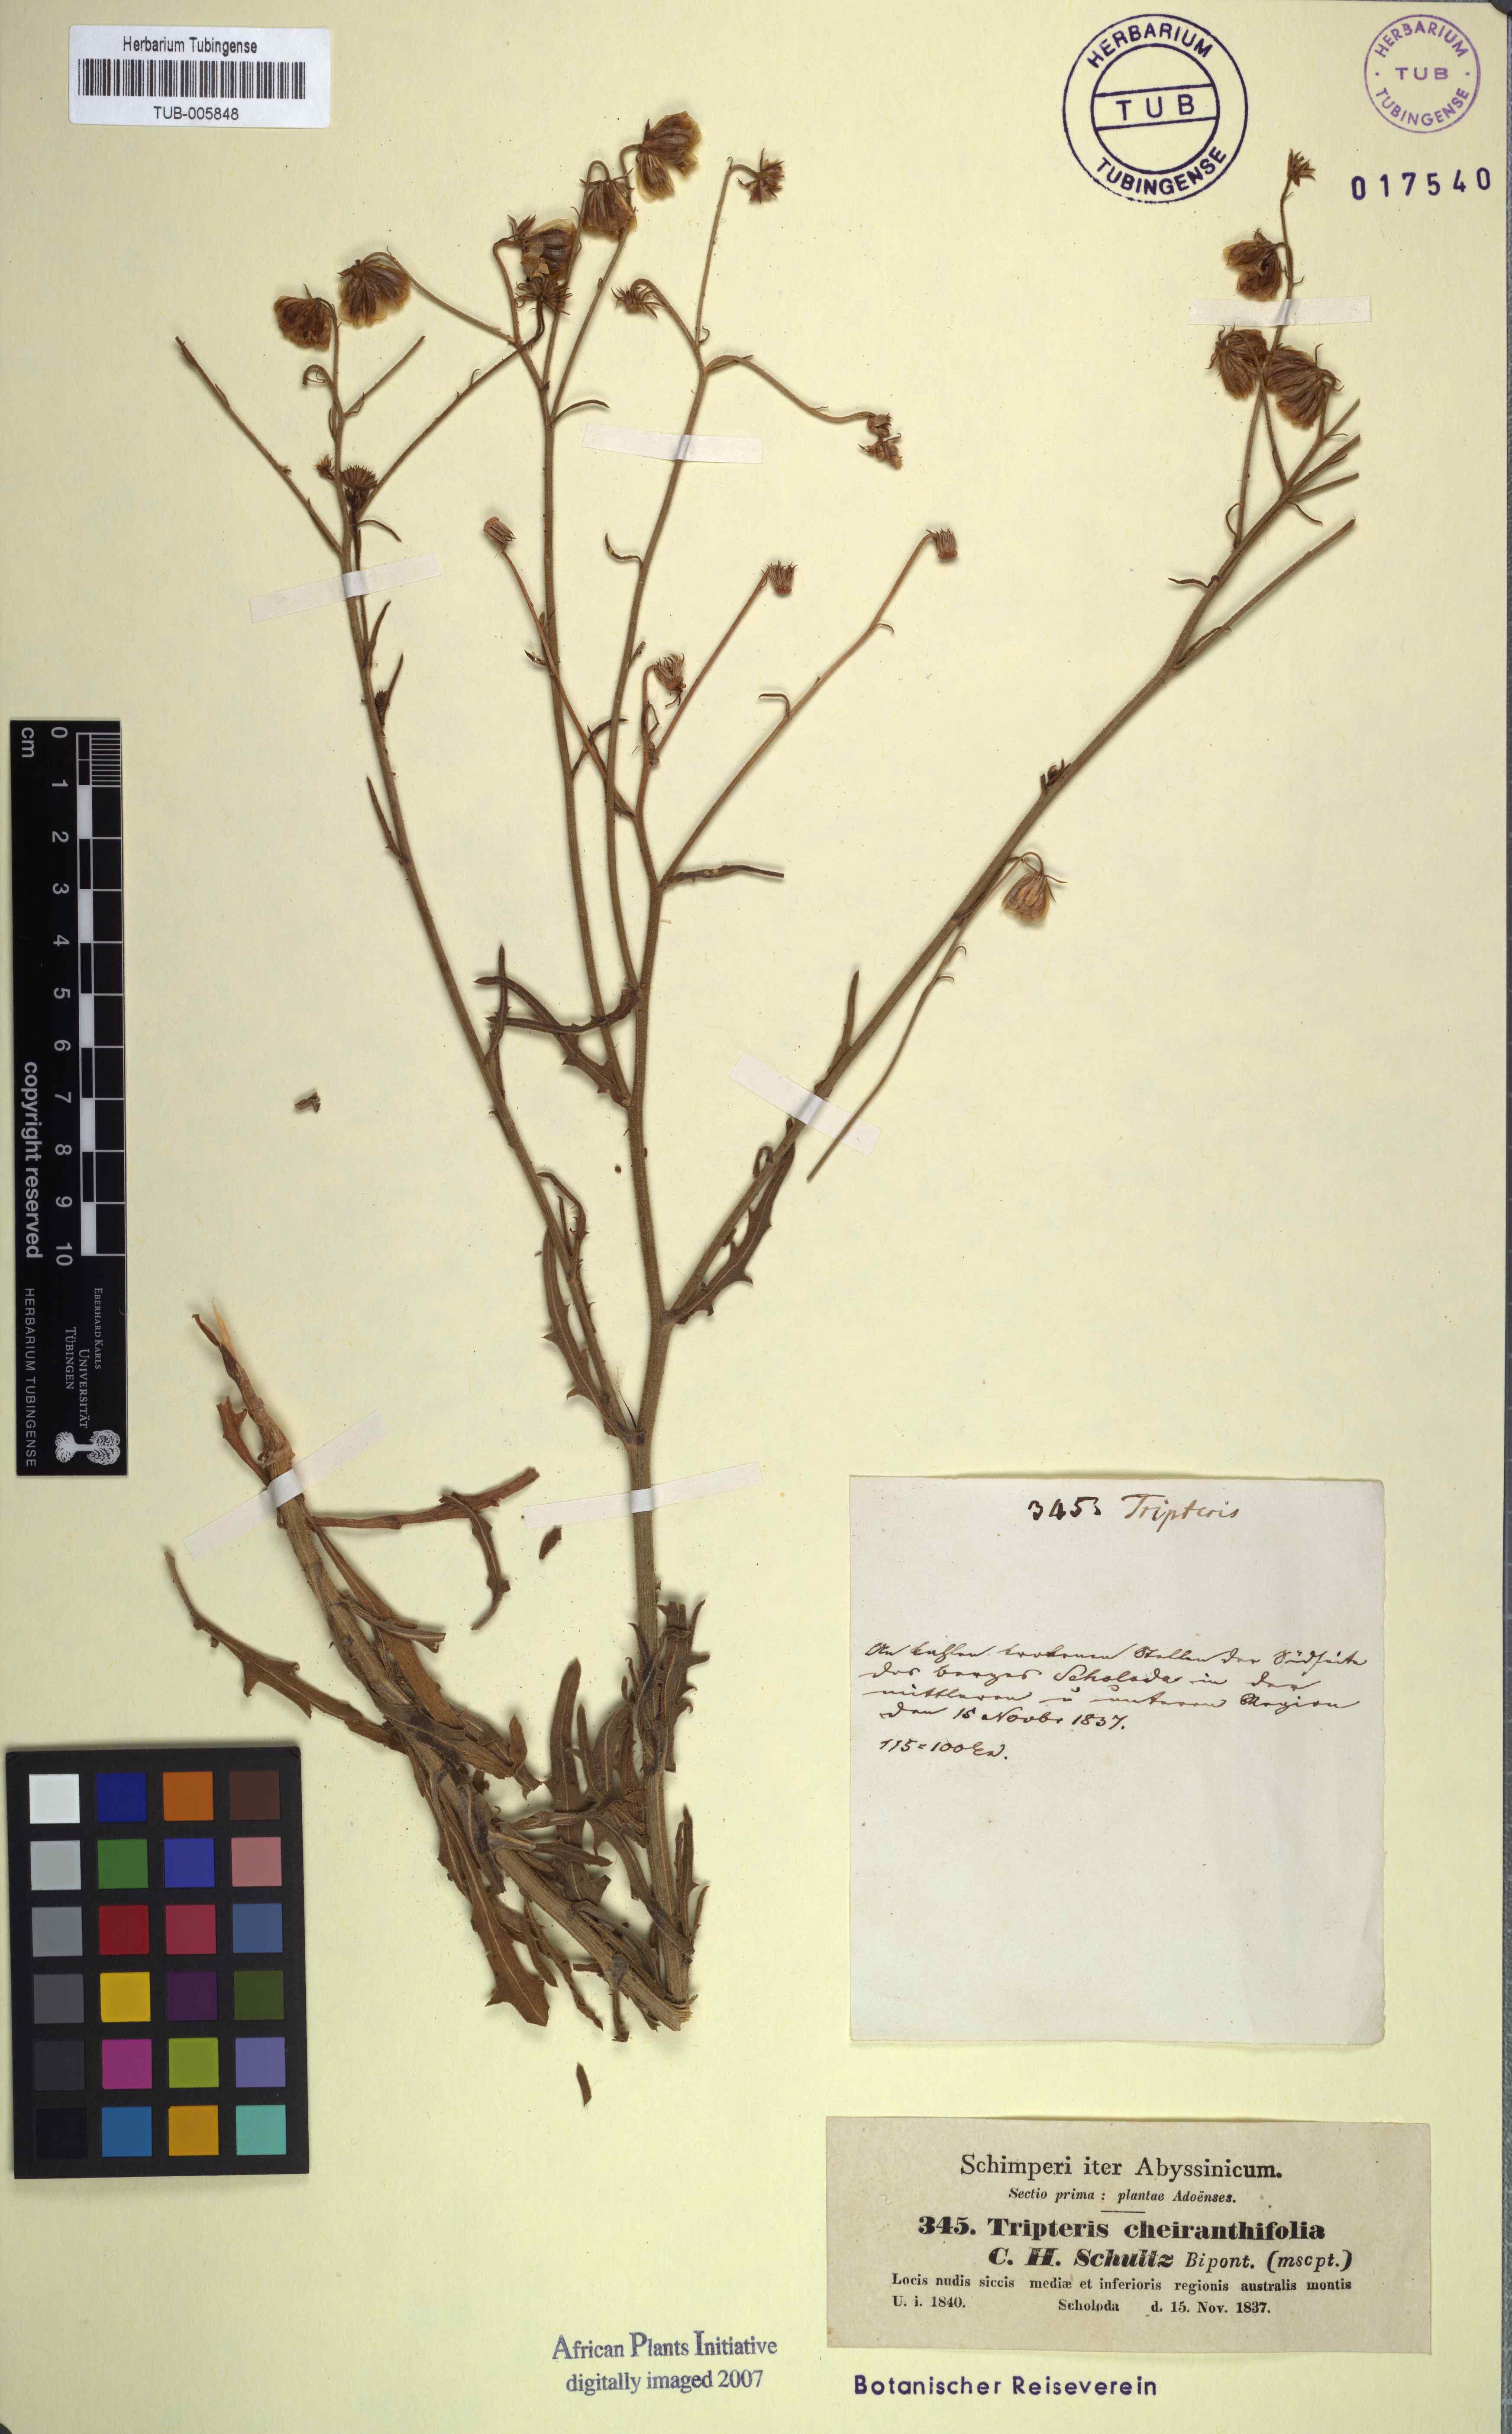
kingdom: Plantae
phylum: Tracheophyta
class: Magnoliopsida
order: Asterales
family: Asteraceae
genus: Osteospermum
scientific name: Osteospermum vaillantii
